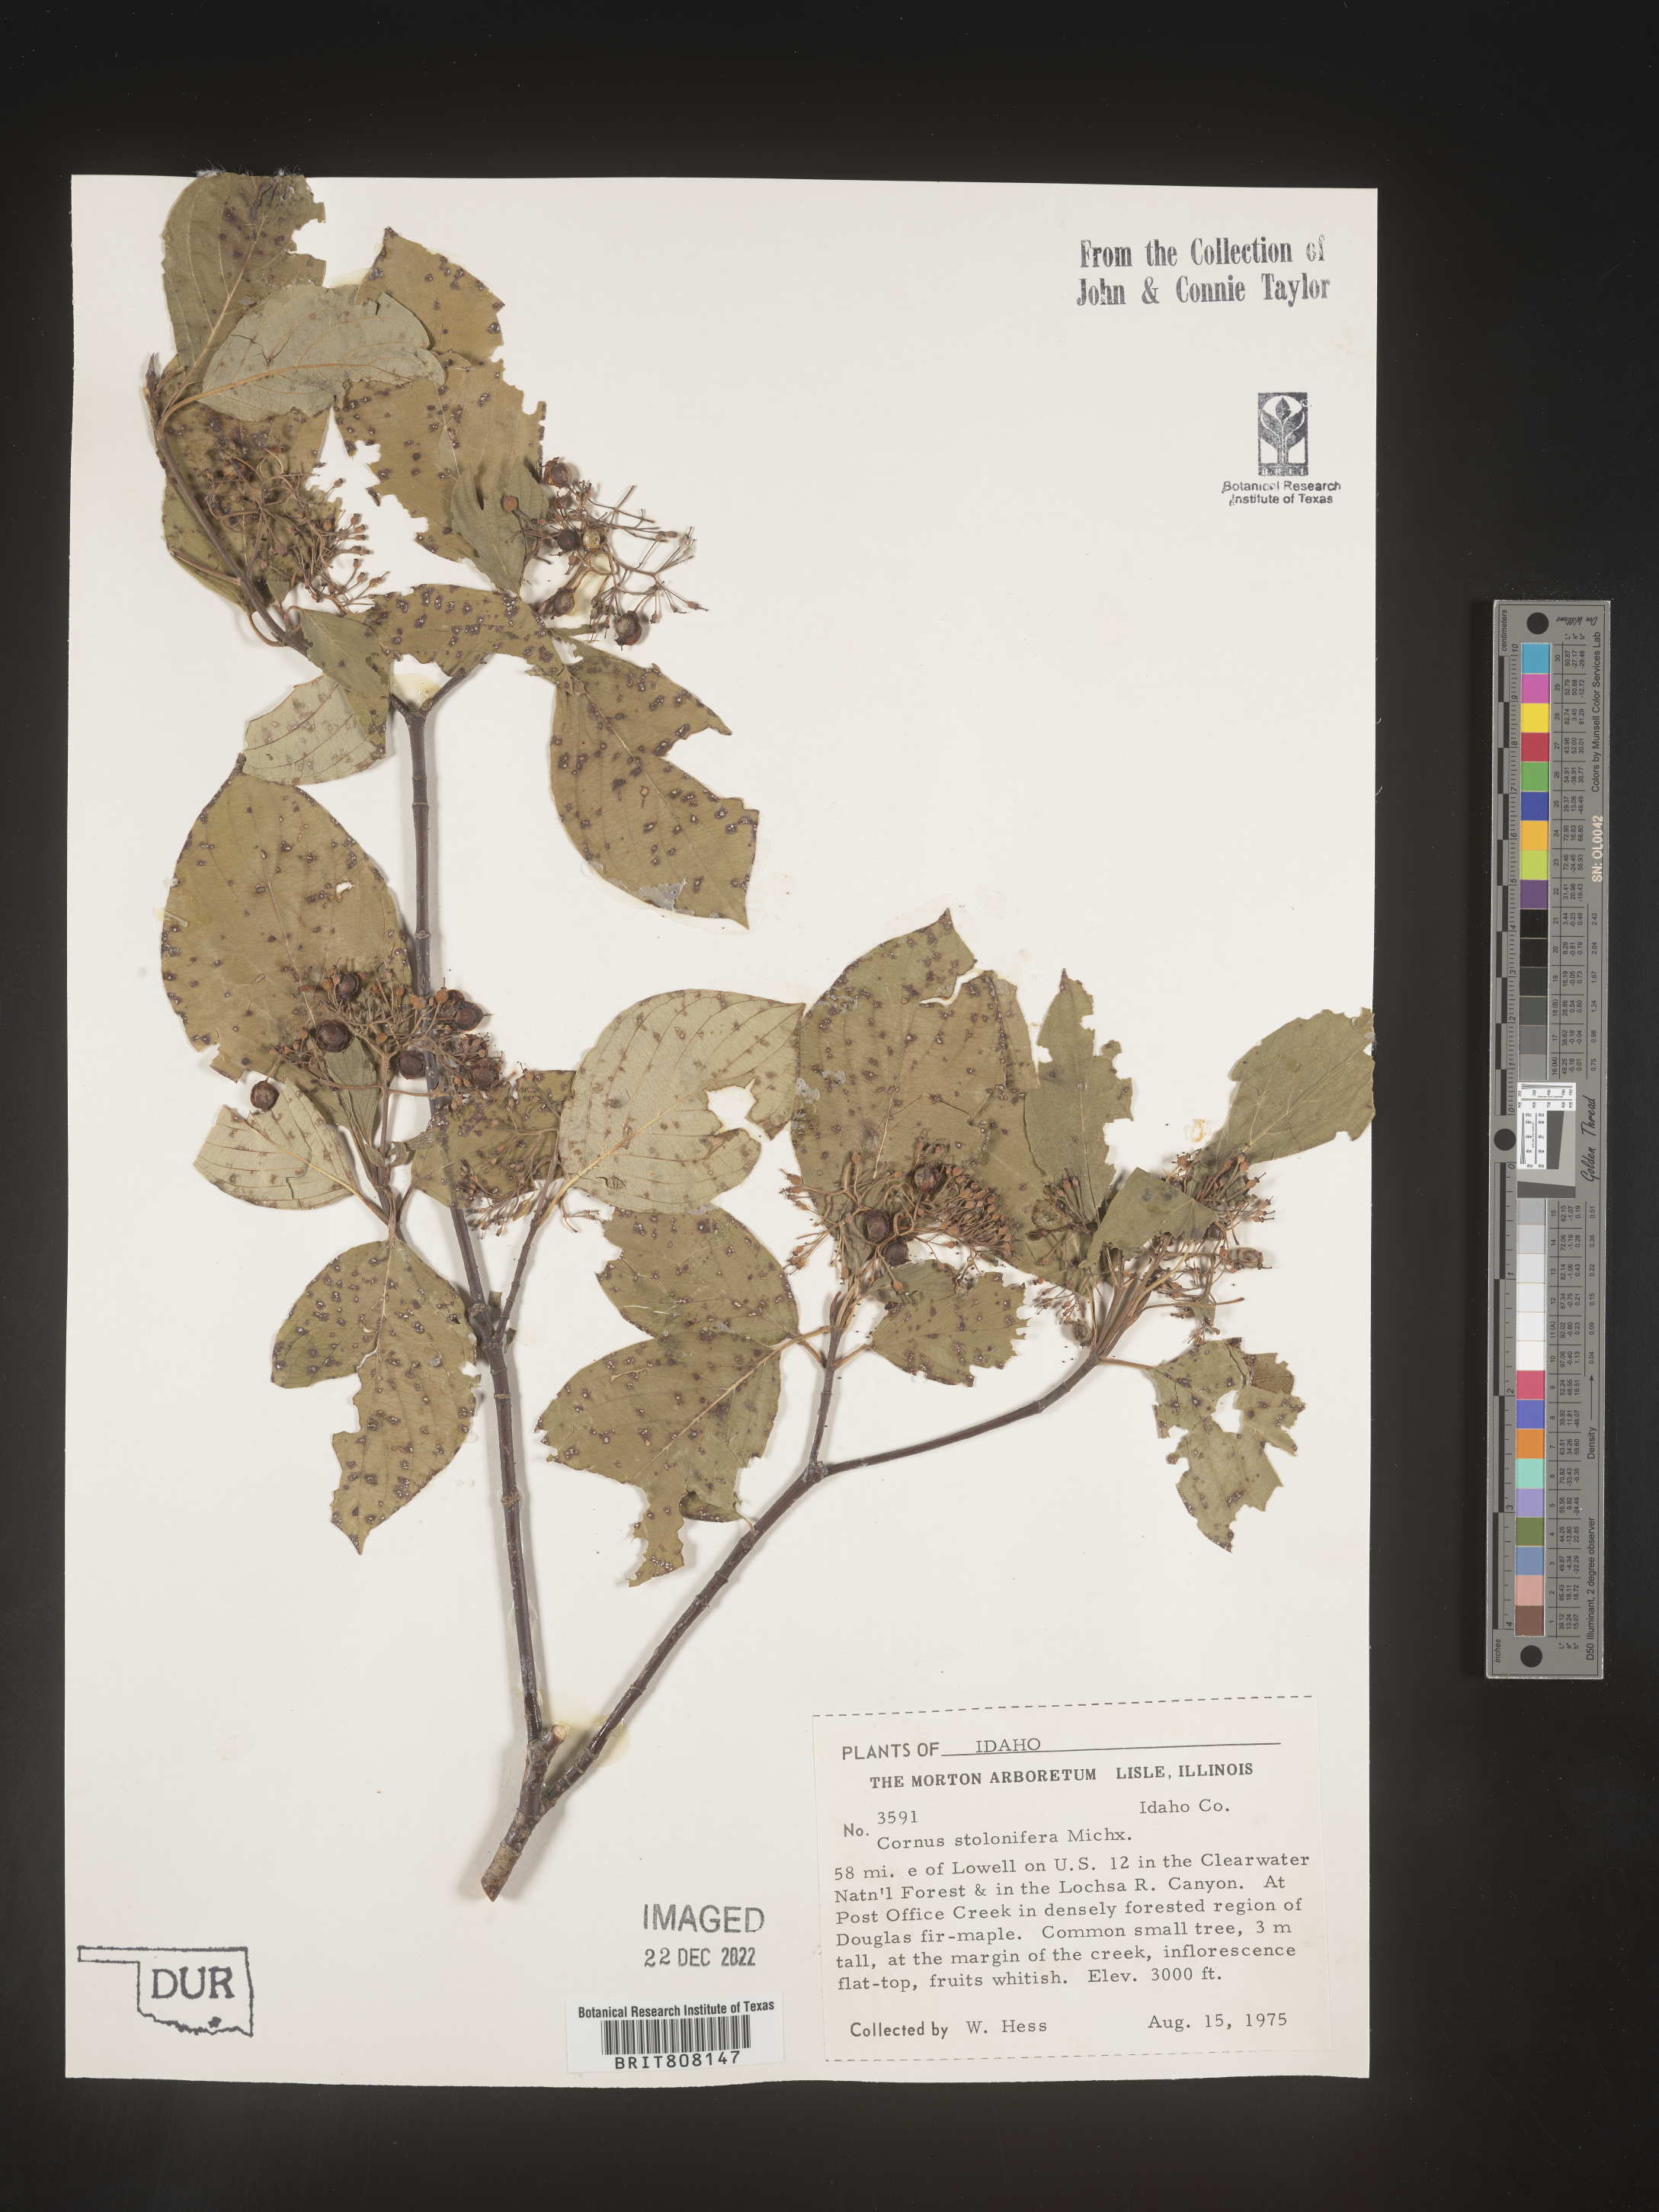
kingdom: Plantae
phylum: Tracheophyta
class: Magnoliopsida
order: Cornales
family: Cornaceae
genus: Cornus
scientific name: Cornus sericea
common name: Red-osier dogwood
